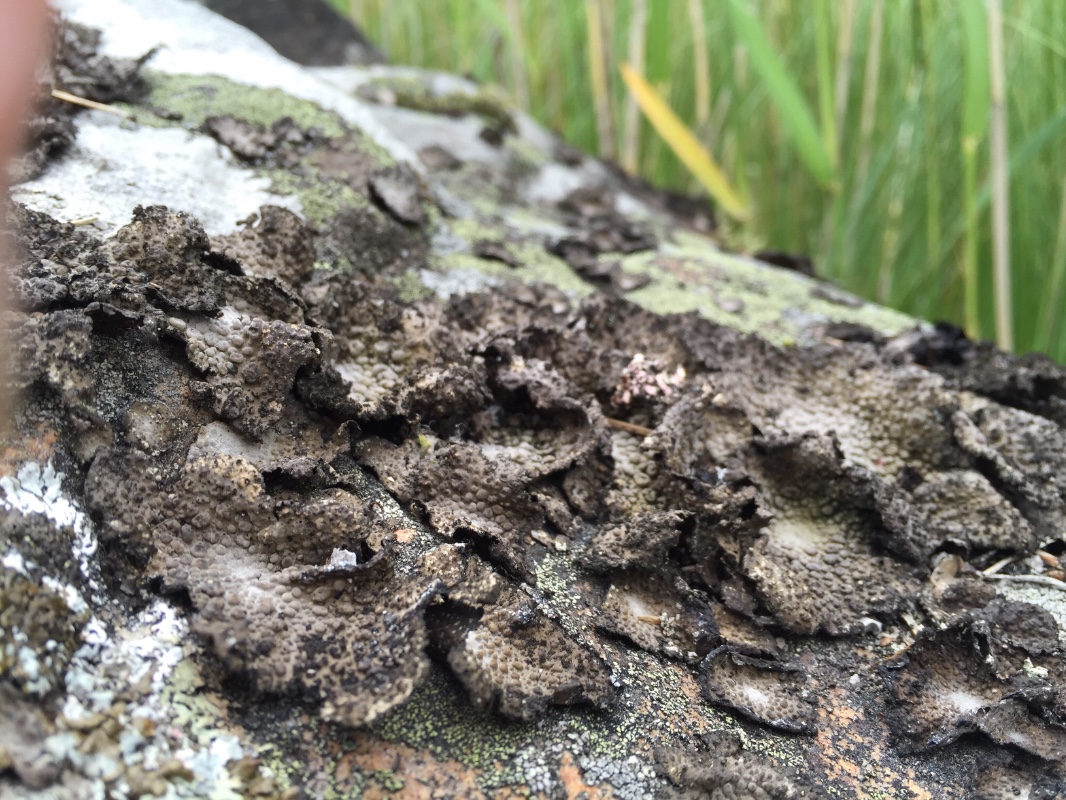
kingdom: Fungi
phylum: Ascomycota
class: Lecanoromycetes
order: Umbilicariales
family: Umbilicariaceae
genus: Lasallia
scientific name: Lasallia pustulata
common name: buklet navlelav
